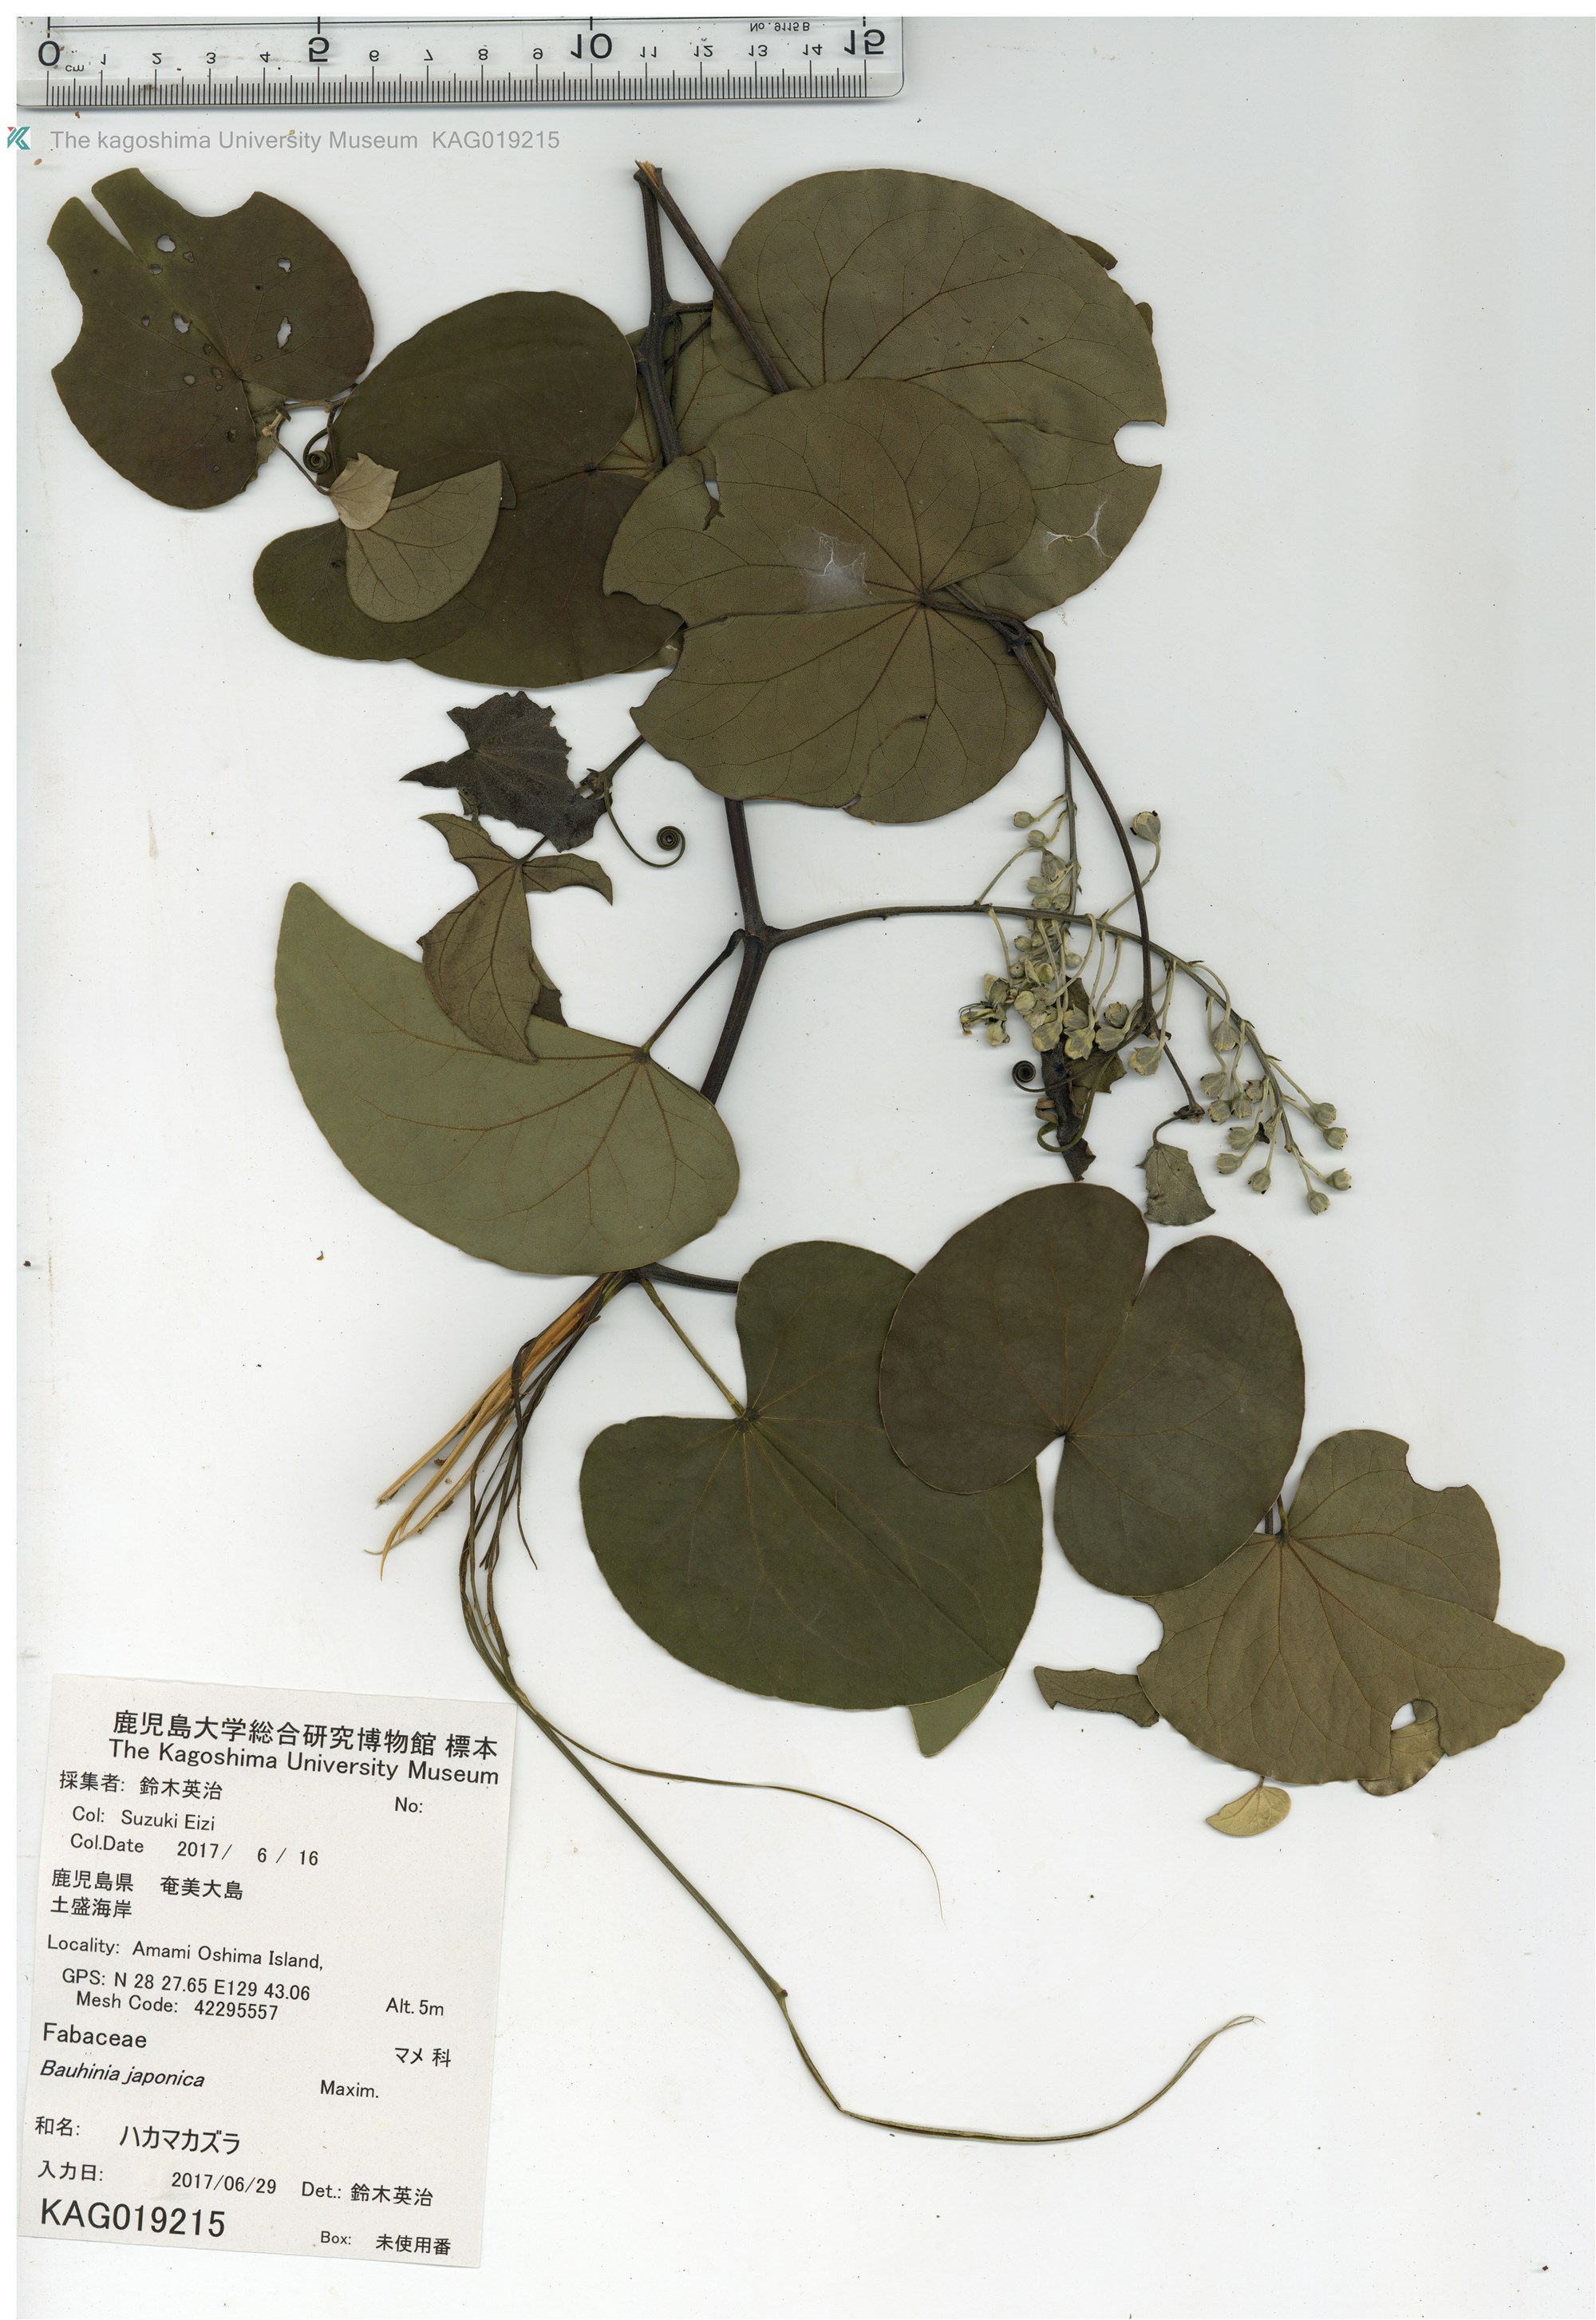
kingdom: Plantae
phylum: Tracheophyta
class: Magnoliopsida
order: Fabales
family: Fabaceae
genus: Phanera
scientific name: Phanera japonica
